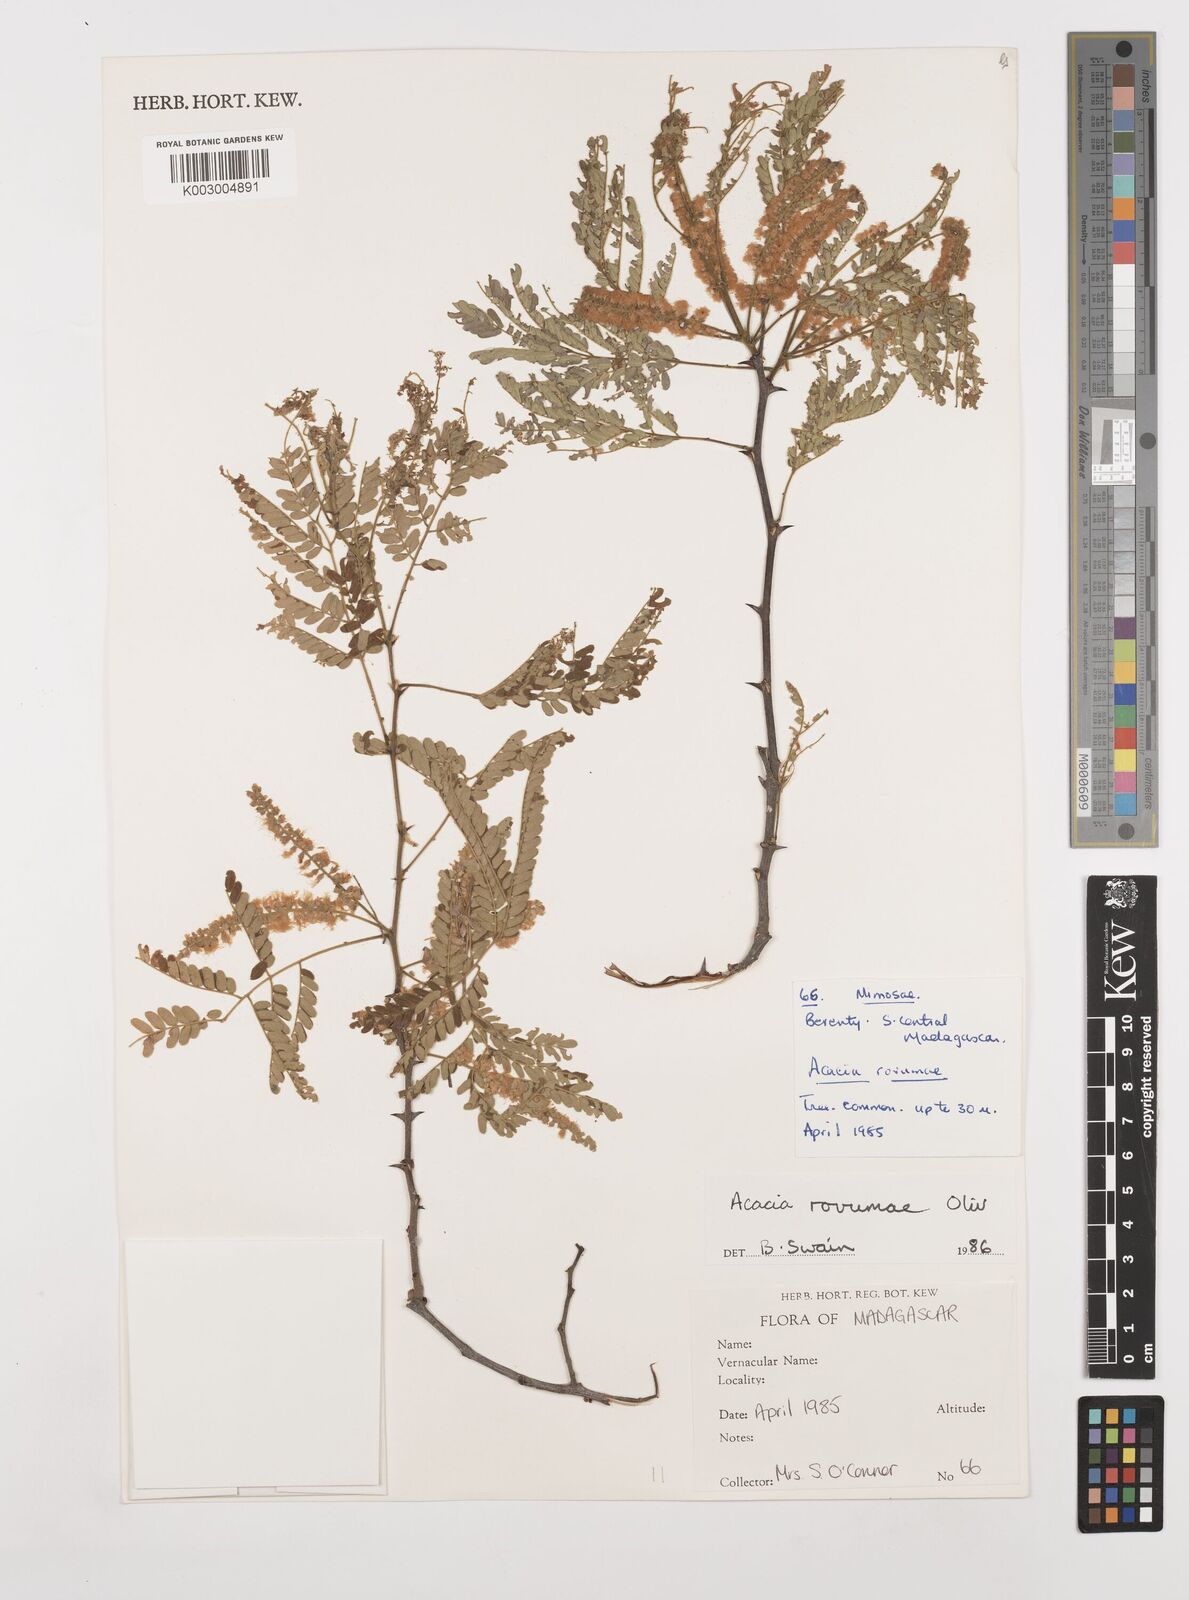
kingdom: Plantae
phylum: Tracheophyta
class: Magnoliopsida
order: Fabales
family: Fabaceae
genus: Senegalia
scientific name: Senegalia rovumae
